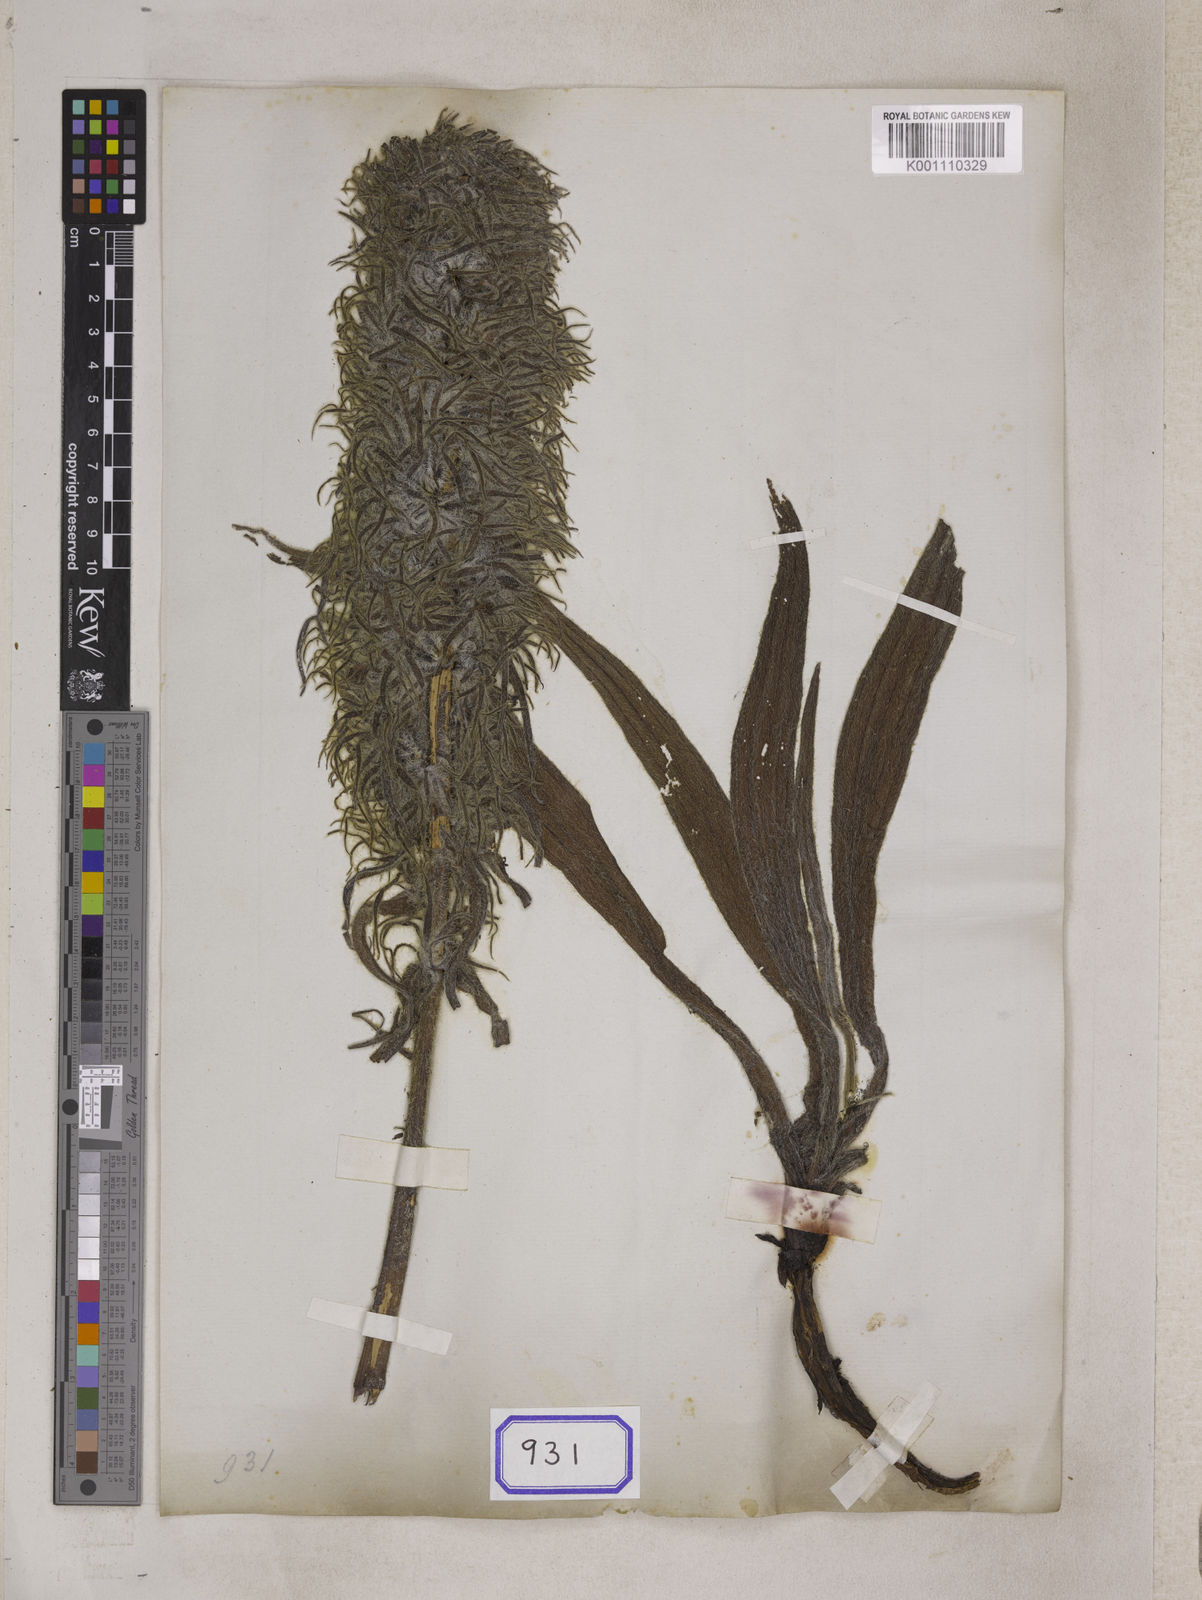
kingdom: Plantae
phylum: Tracheophyta
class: Magnoliopsida
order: Boraginales
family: Boraginaceae
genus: Echium
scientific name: Echium
